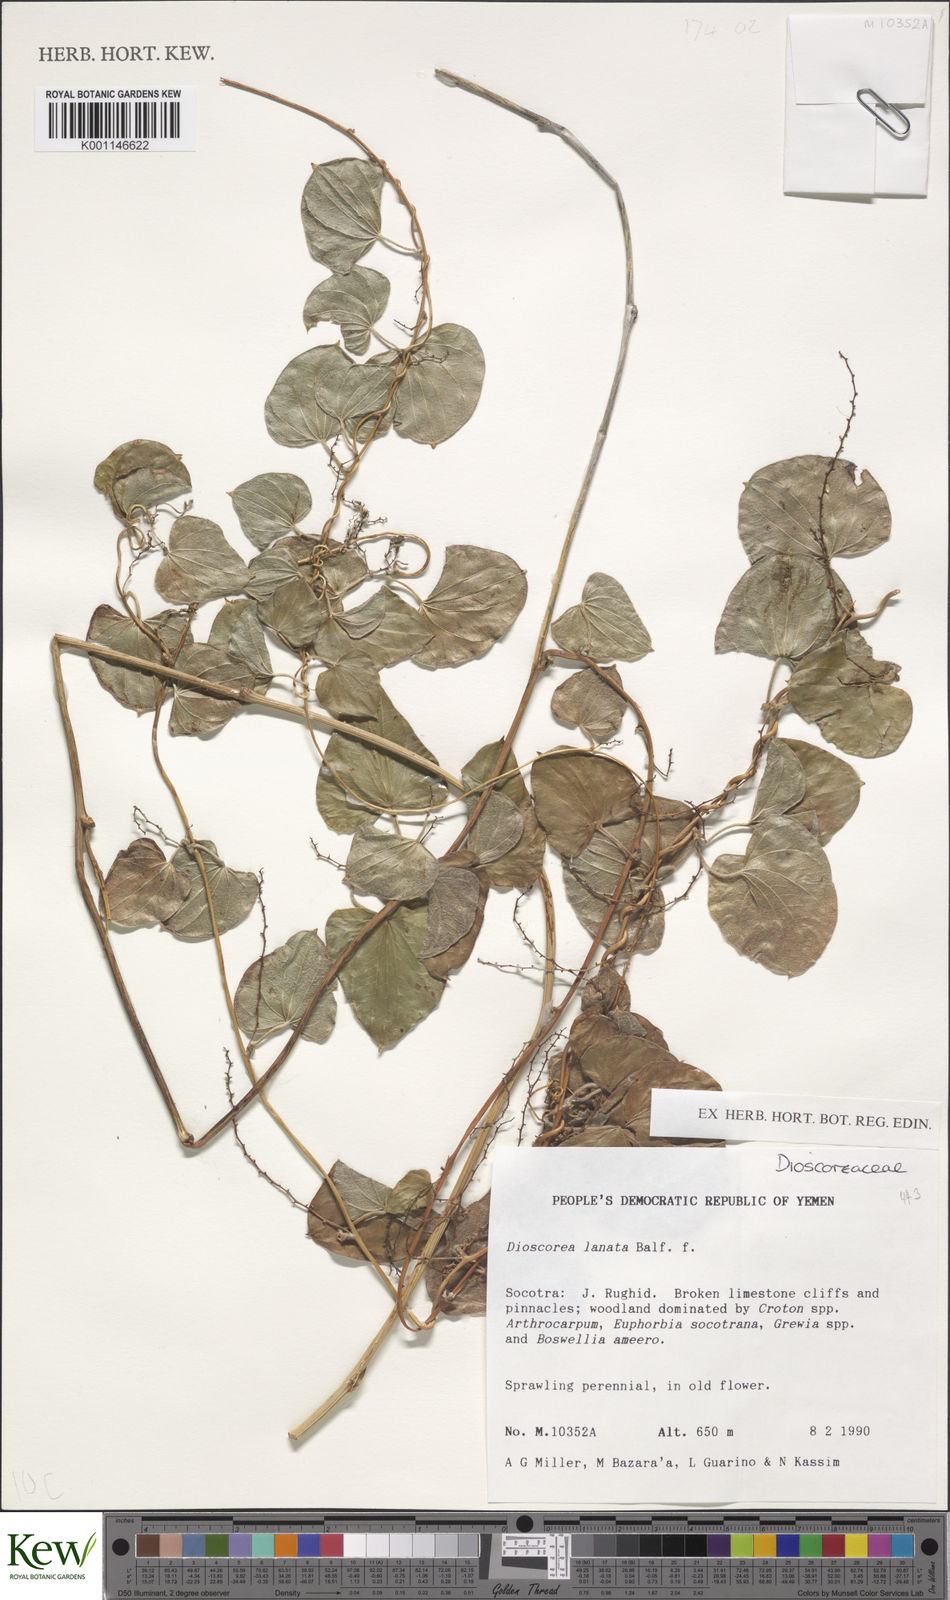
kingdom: Plantae
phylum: Tracheophyta
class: Liliopsida
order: Dioscoreales
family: Dioscoreaceae
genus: Dioscorea
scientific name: Dioscorea
